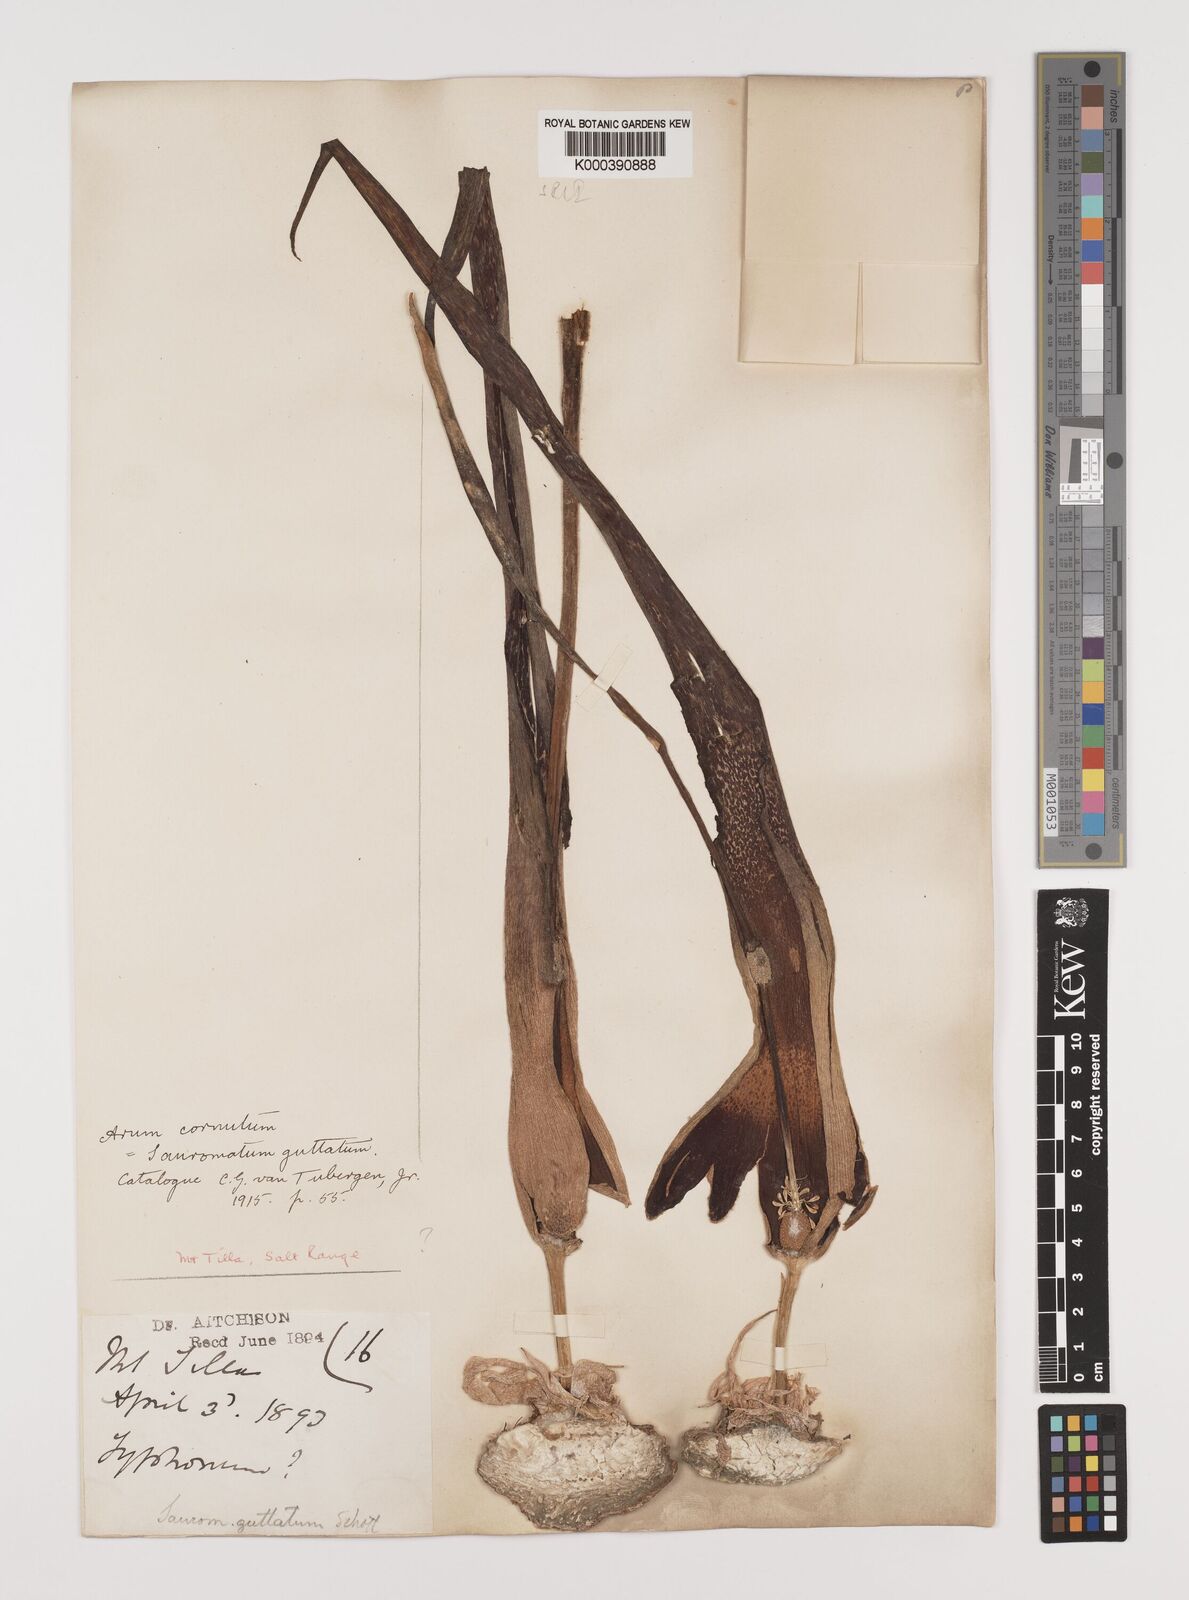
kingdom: Plantae
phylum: Tracheophyta
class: Liliopsida
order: Alismatales
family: Araceae
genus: Sauromatum
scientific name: Sauromatum venosum
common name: Voodoo lily
